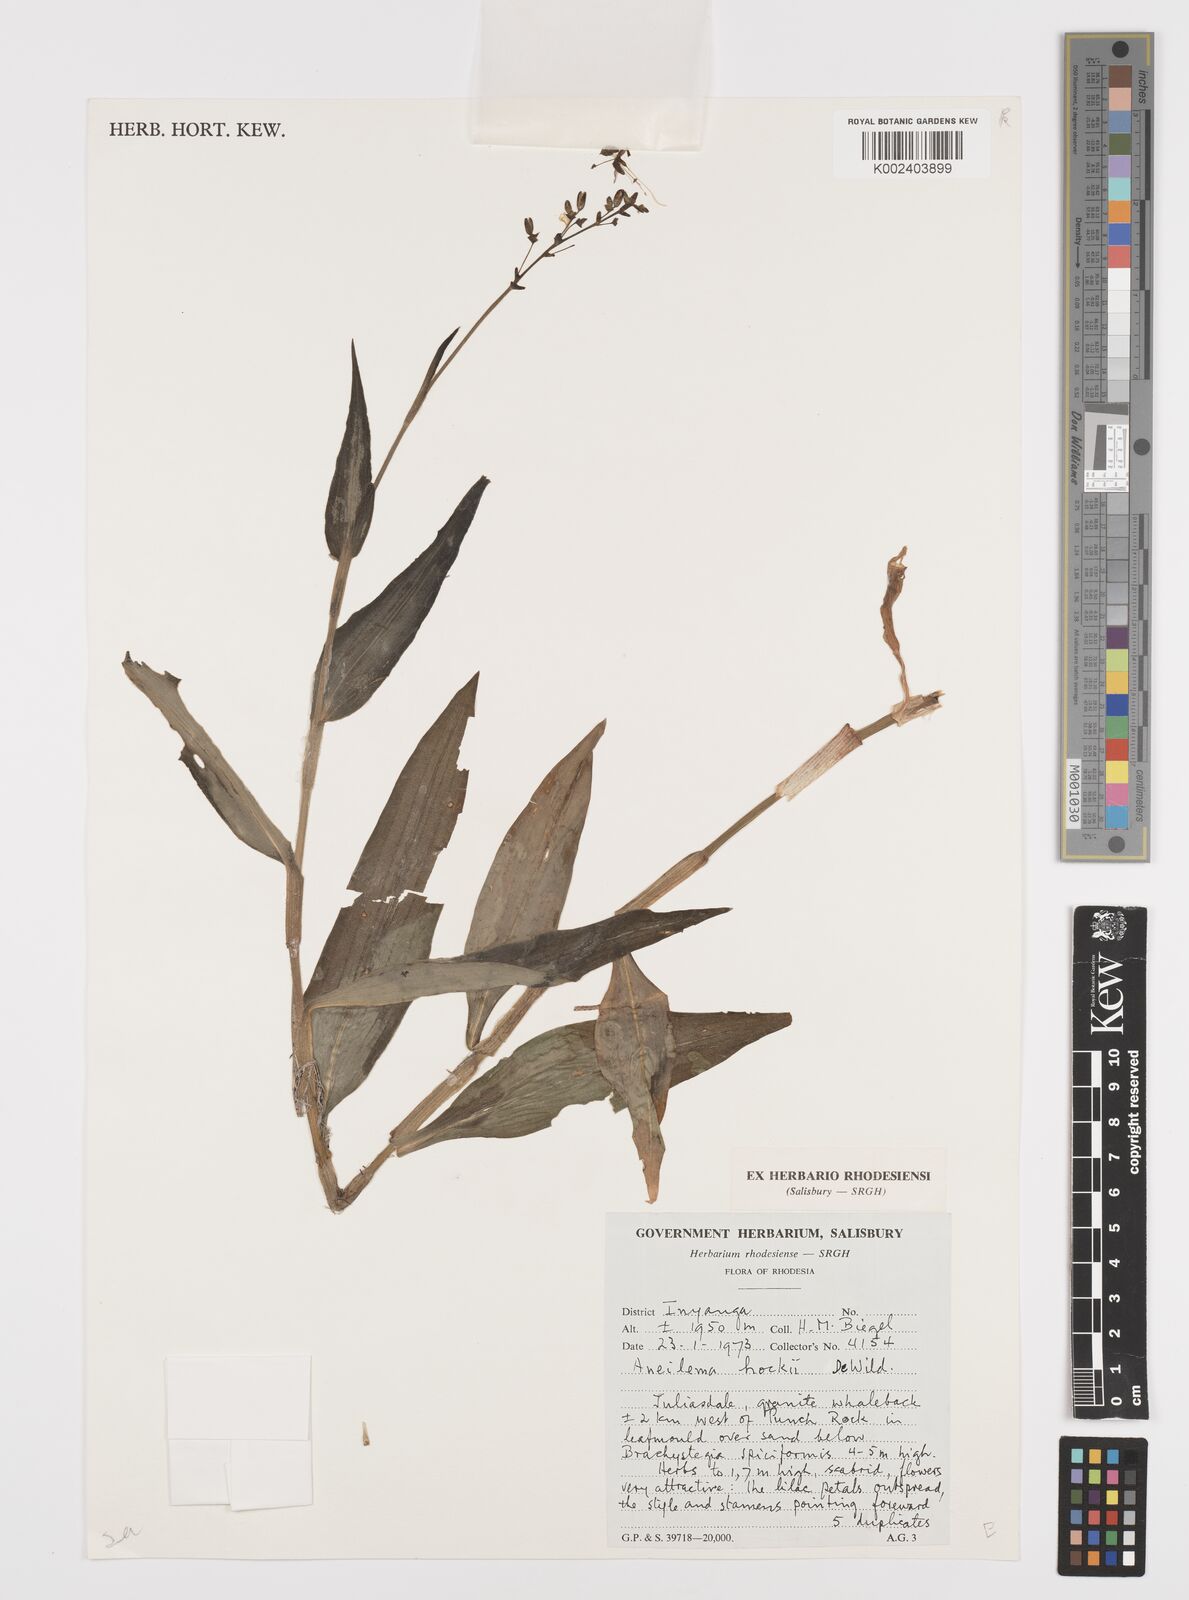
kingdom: Plantae
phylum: Tracheophyta
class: Liliopsida
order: Commelinales
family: Commelinaceae
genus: Aneilema
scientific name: Aneilema hockii
